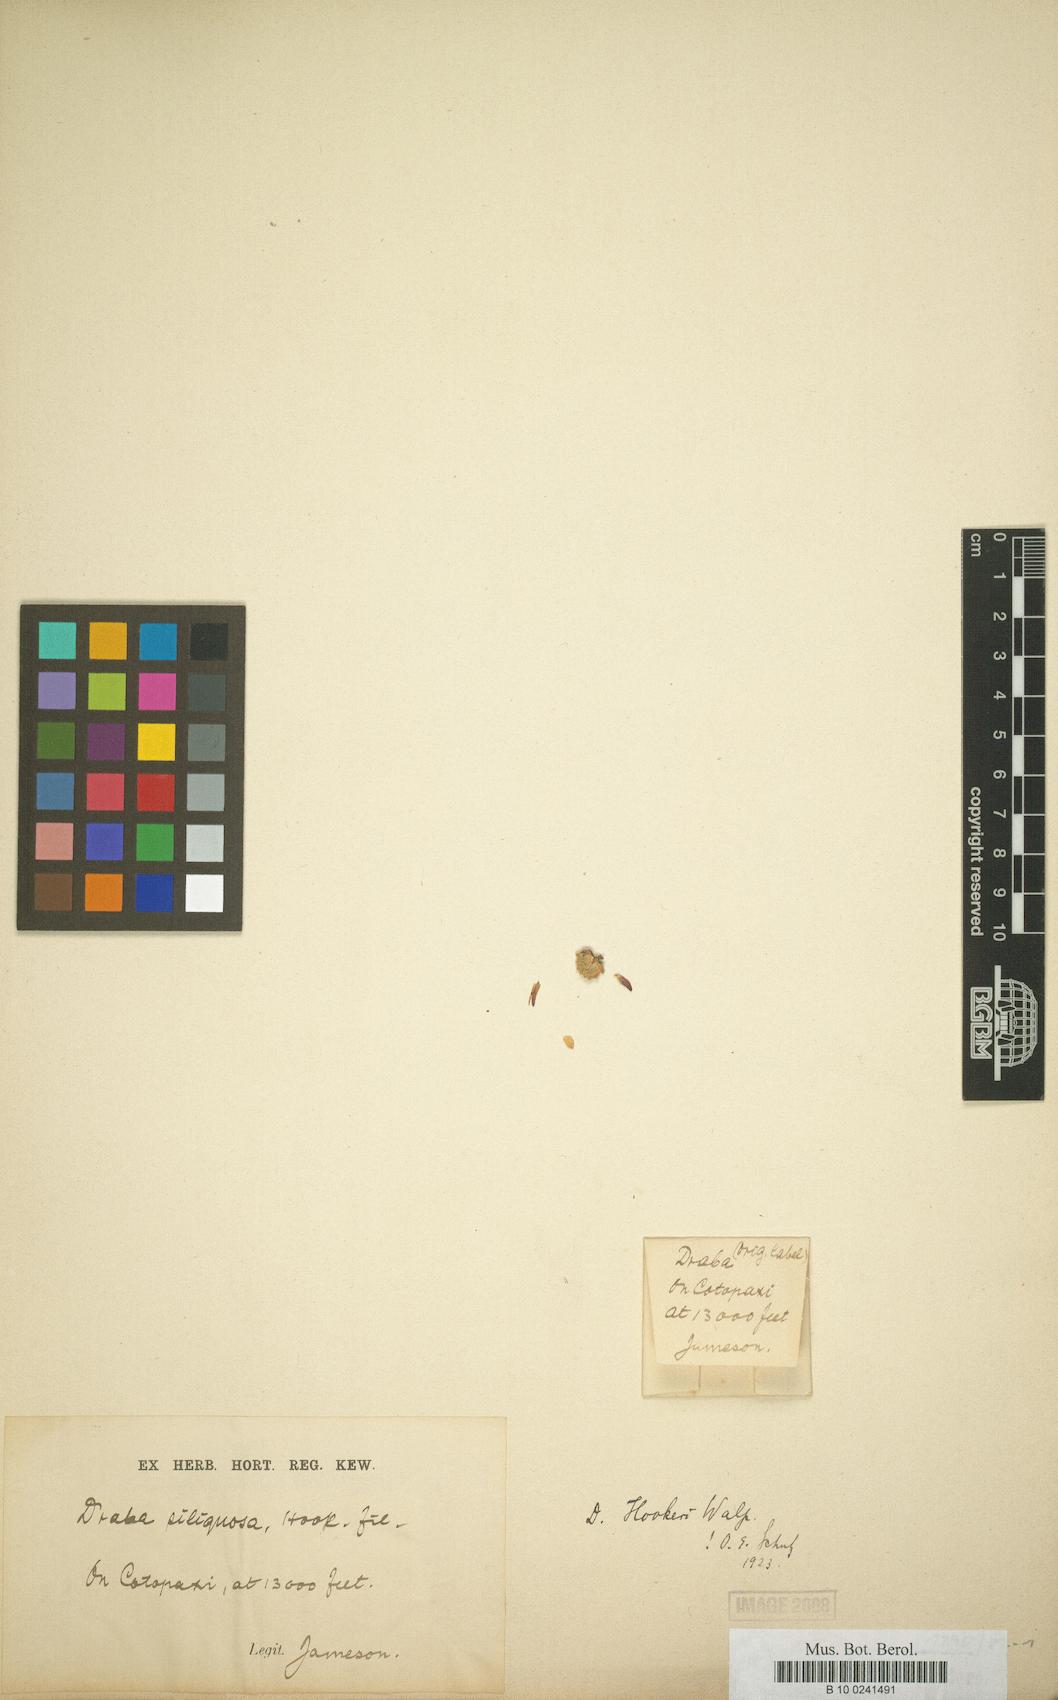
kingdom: Plantae
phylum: Tracheophyta
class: Magnoliopsida
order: Brassicales
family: Brassicaceae
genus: Draba
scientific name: Draba hookeri
